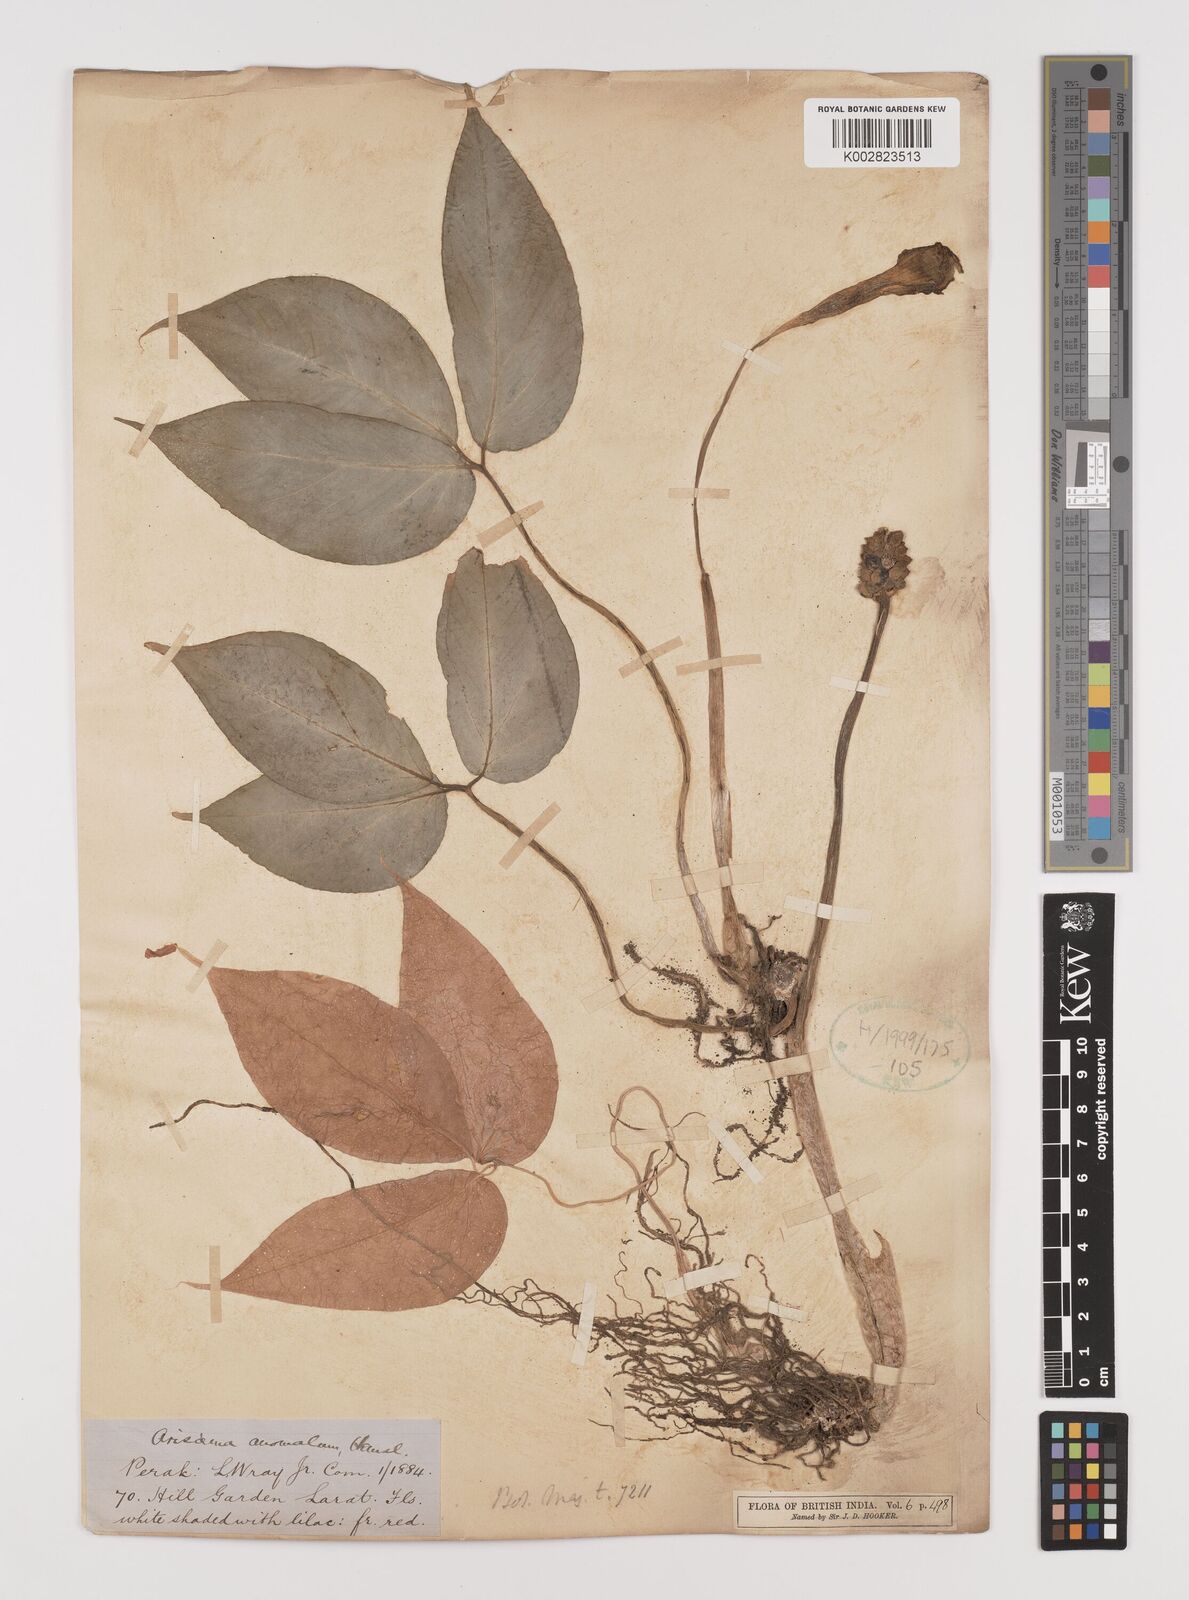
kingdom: Plantae
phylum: Tracheophyta
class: Liliopsida
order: Alismatales
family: Araceae
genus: Arisaema
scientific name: Arisaema anomalum
